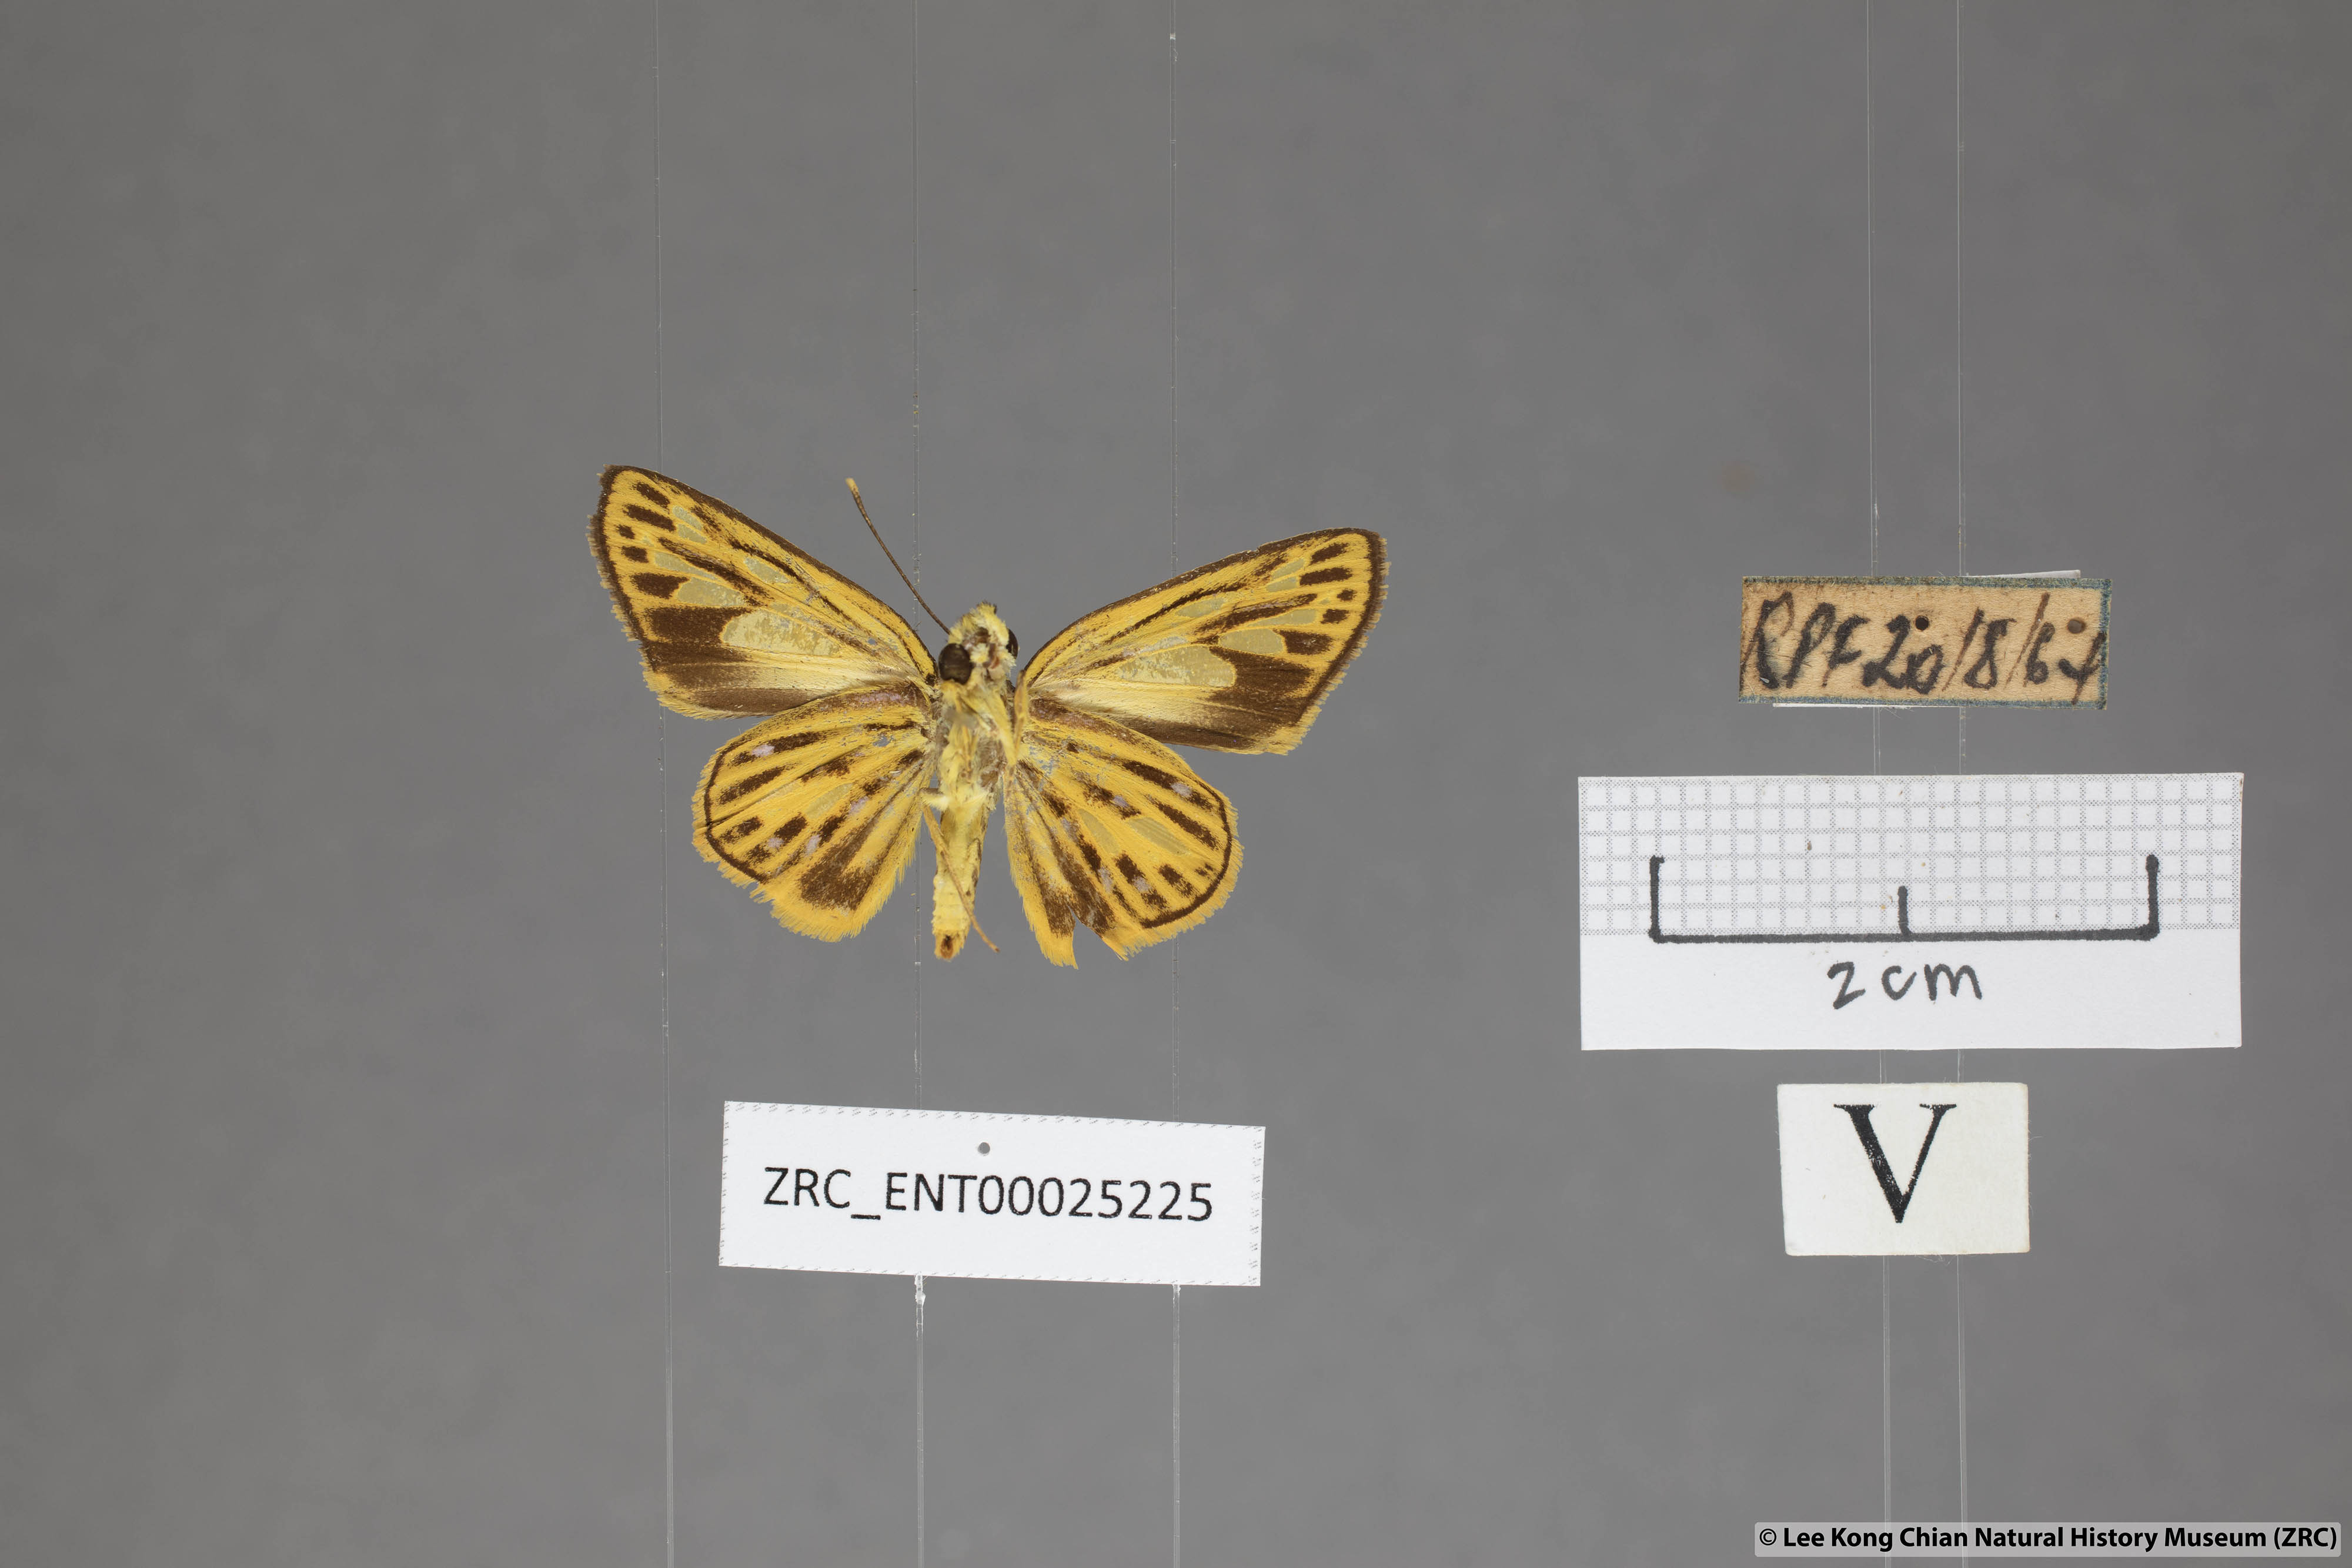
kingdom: Animalia
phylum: Arthropoda
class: Insecta
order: Lepidoptera
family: Hesperiidae
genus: Pyroneura
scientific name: Pyroneura flavia
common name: Lesser lancer
